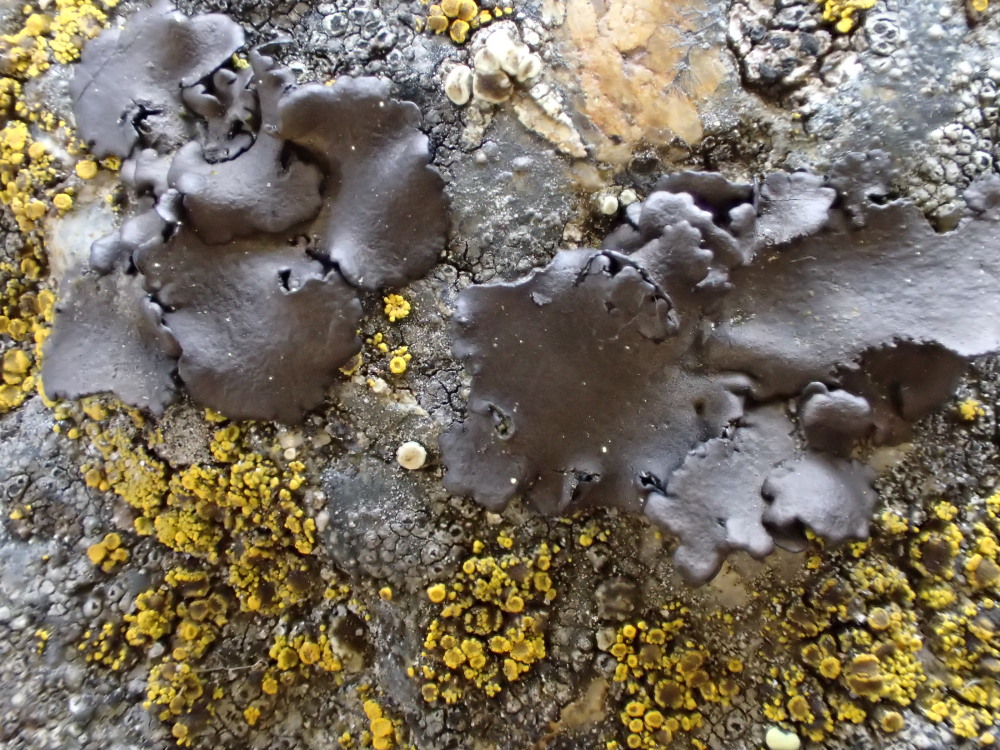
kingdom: Fungi
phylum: Ascomycota
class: Lecanoromycetes
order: Umbilicariales
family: Umbilicariaceae
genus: Umbilicaria
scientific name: Umbilicaria polyphylla
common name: glat navlelav
